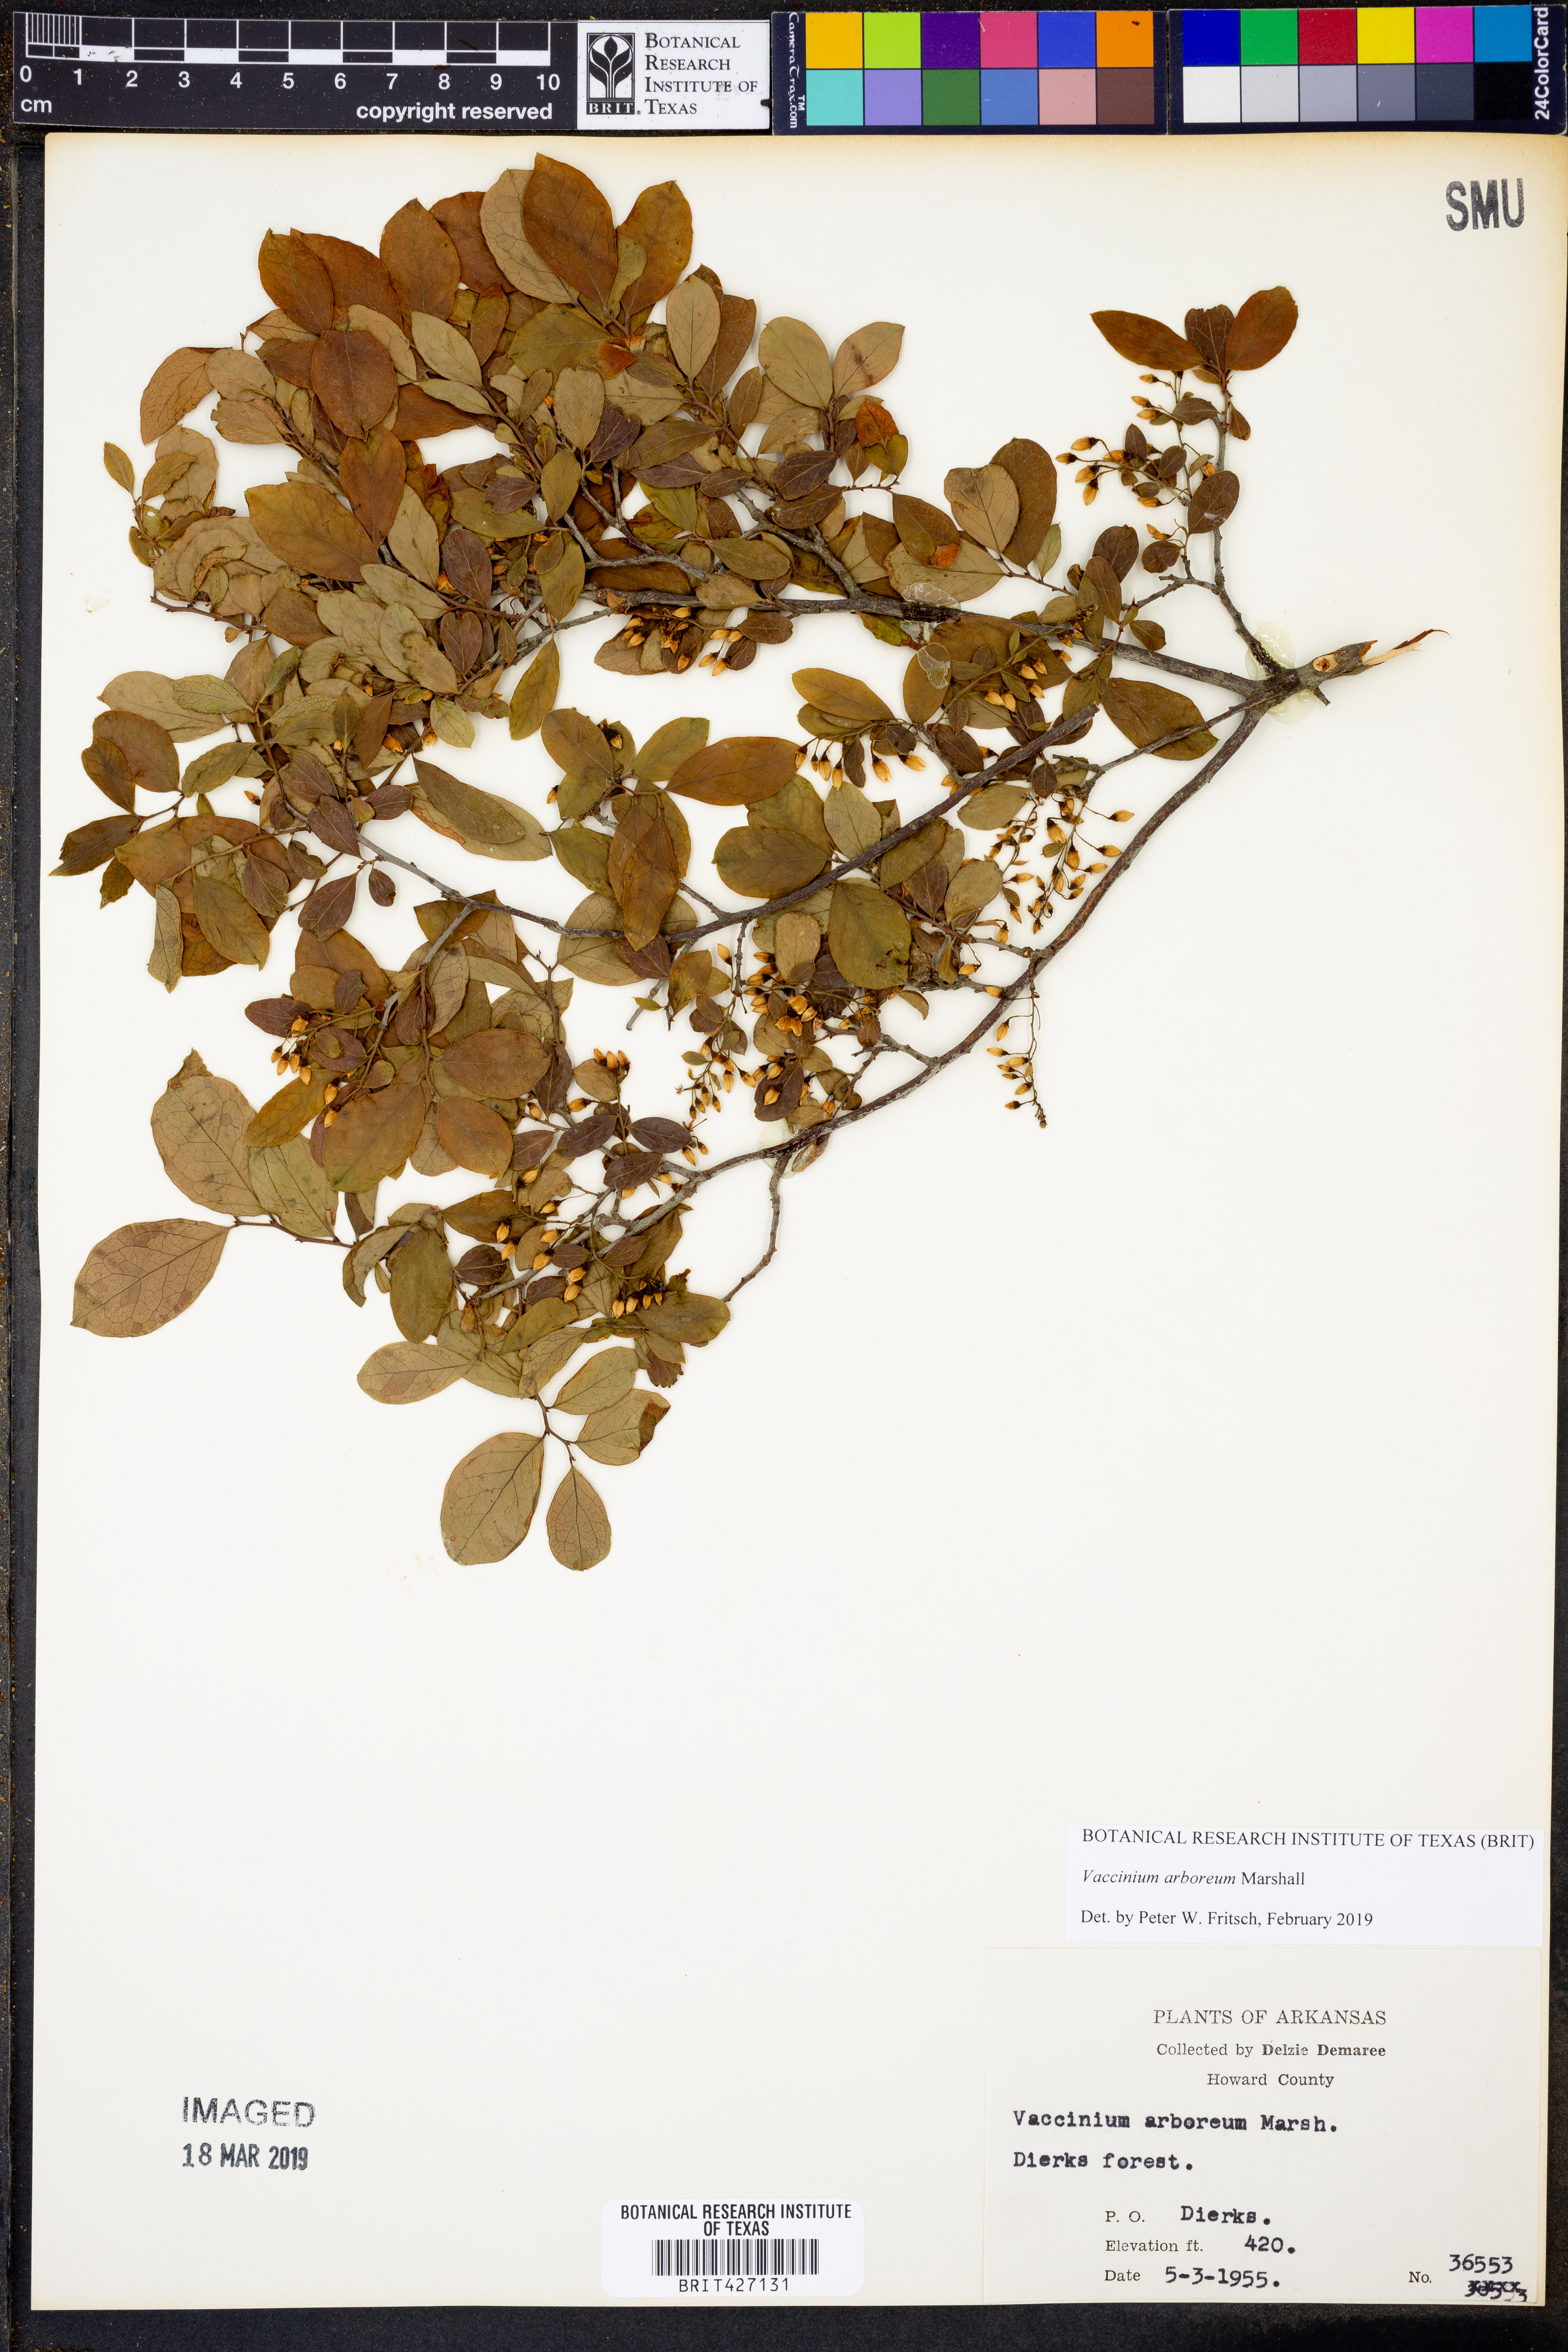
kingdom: Plantae
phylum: Tracheophyta
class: Magnoliopsida
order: Ericales
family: Ericaceae
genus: Vaccinium
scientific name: Vaccinium arboreum
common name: Farkleberry
